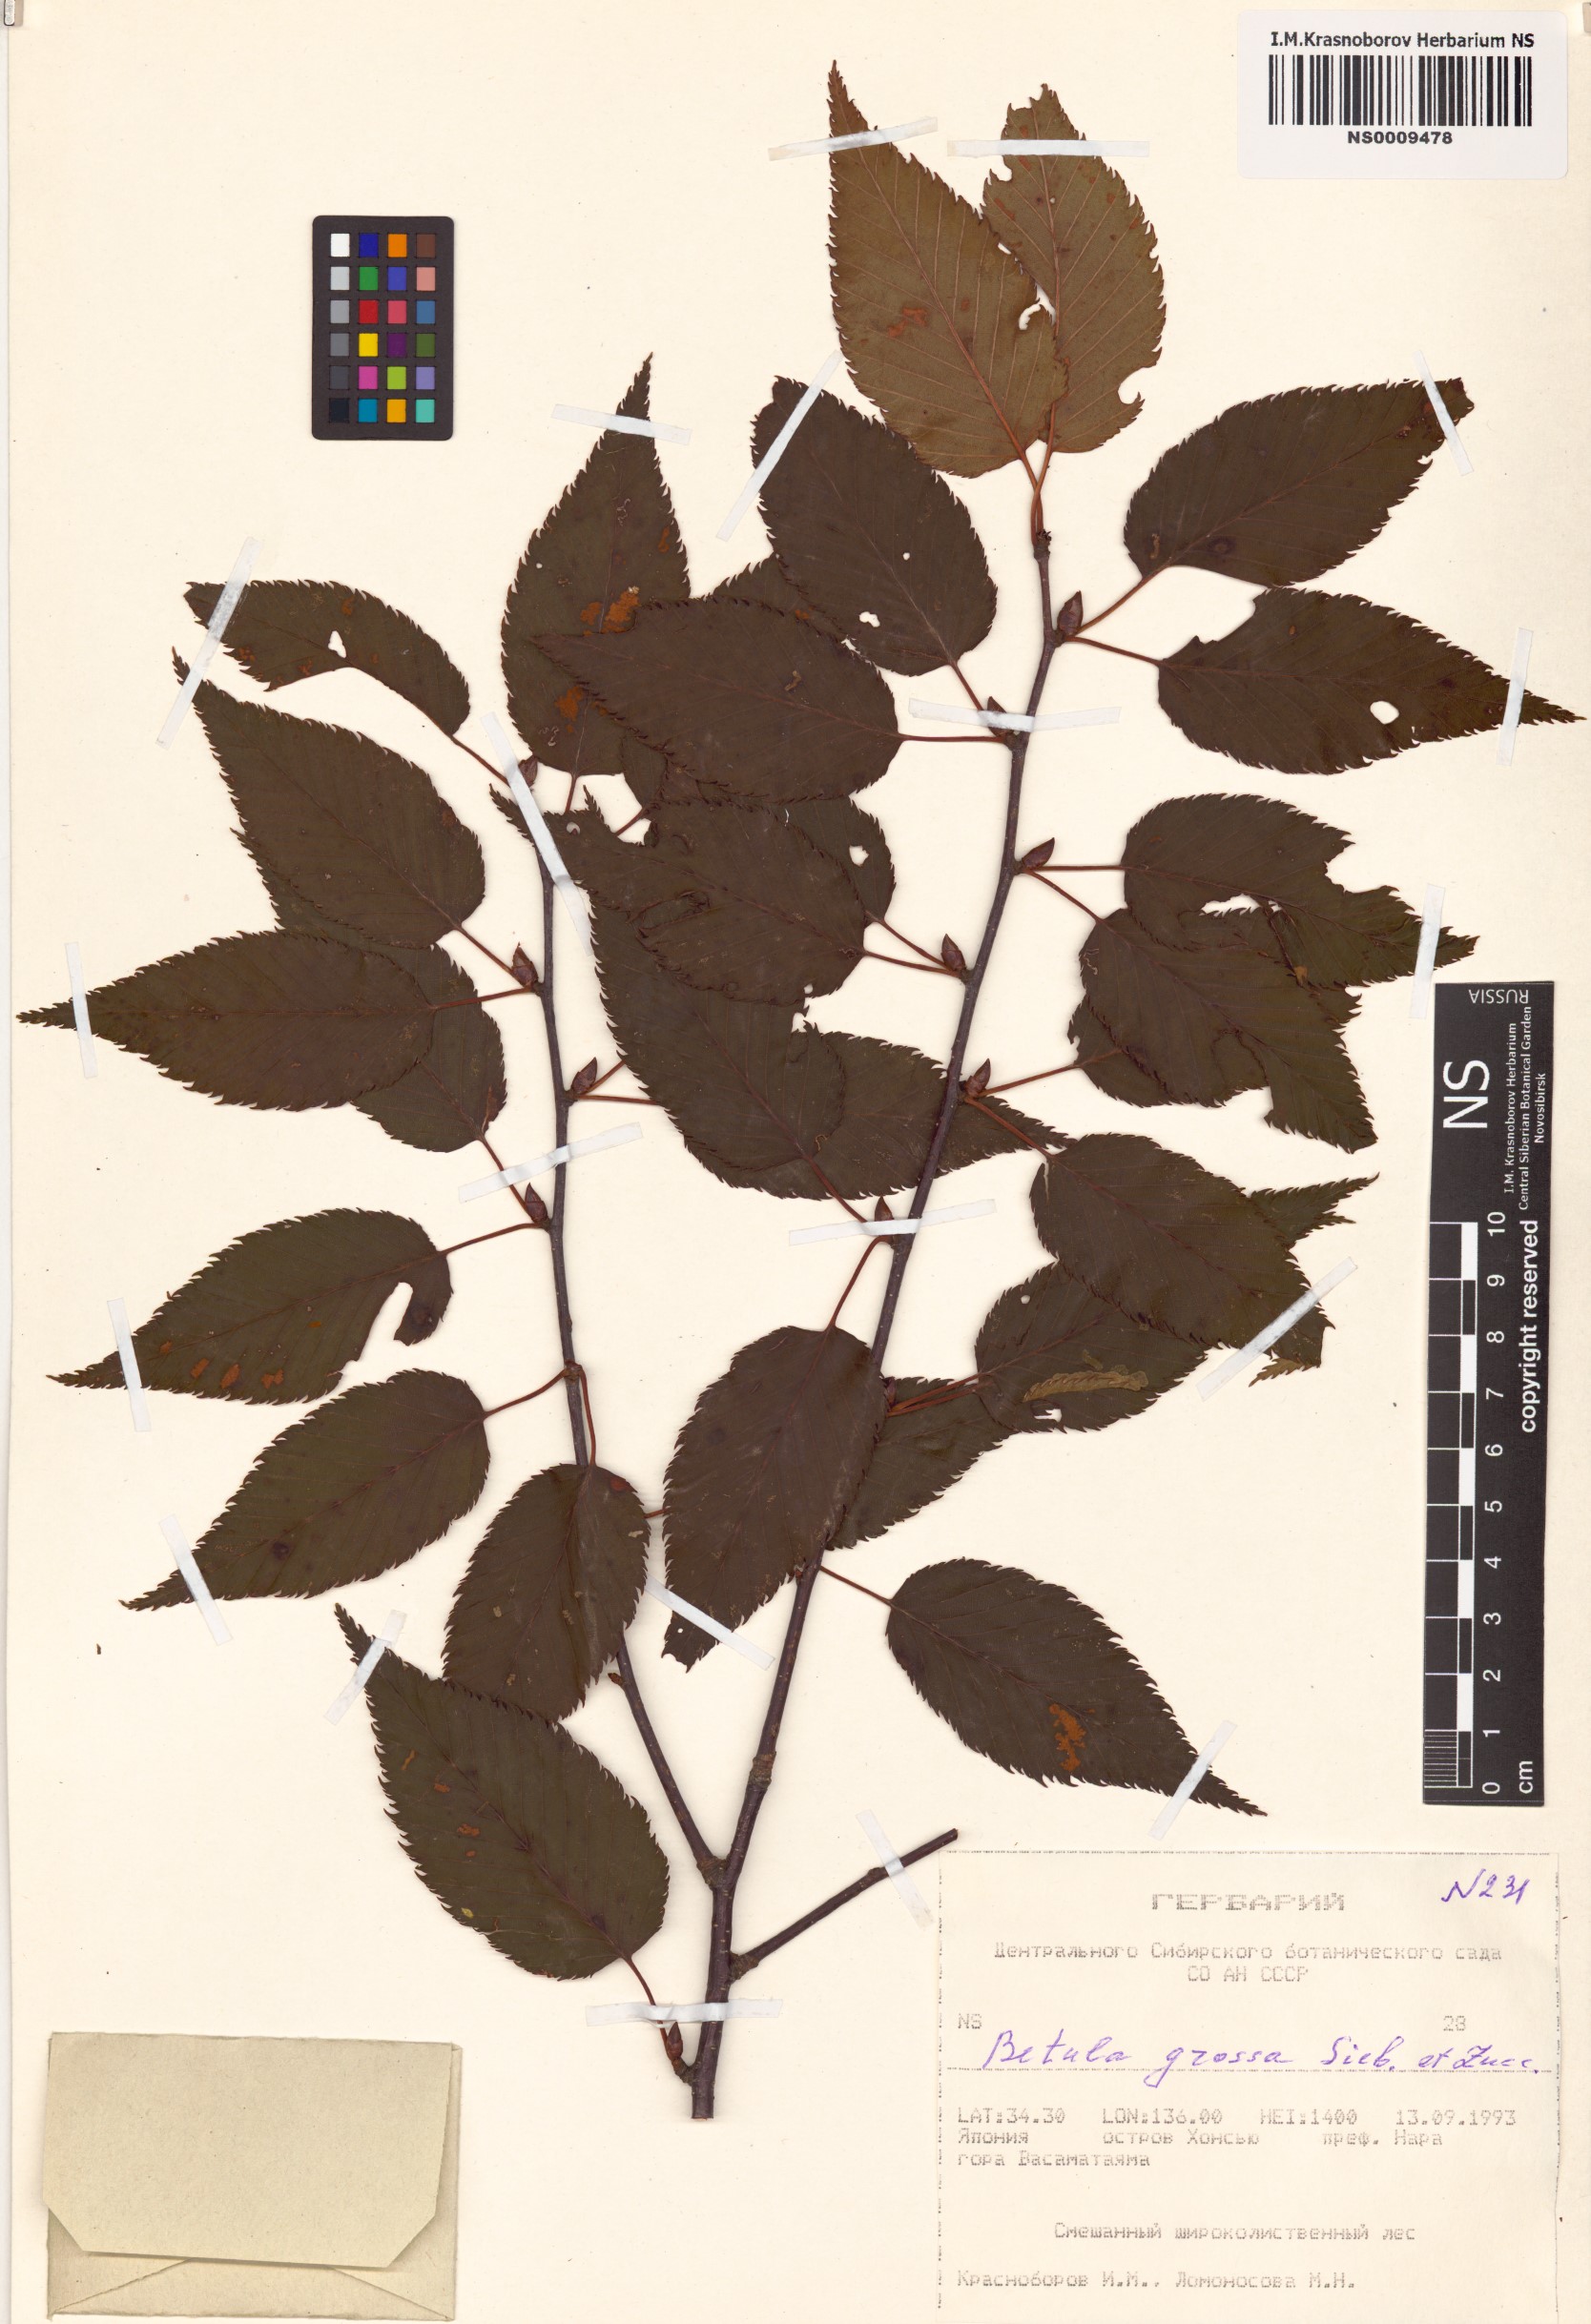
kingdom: Plantae
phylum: Tracheophyta
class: Magnoliopsida
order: Fagales
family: Betulaceae
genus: Betula
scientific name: Betula grossa
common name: Japanese cherry birch
